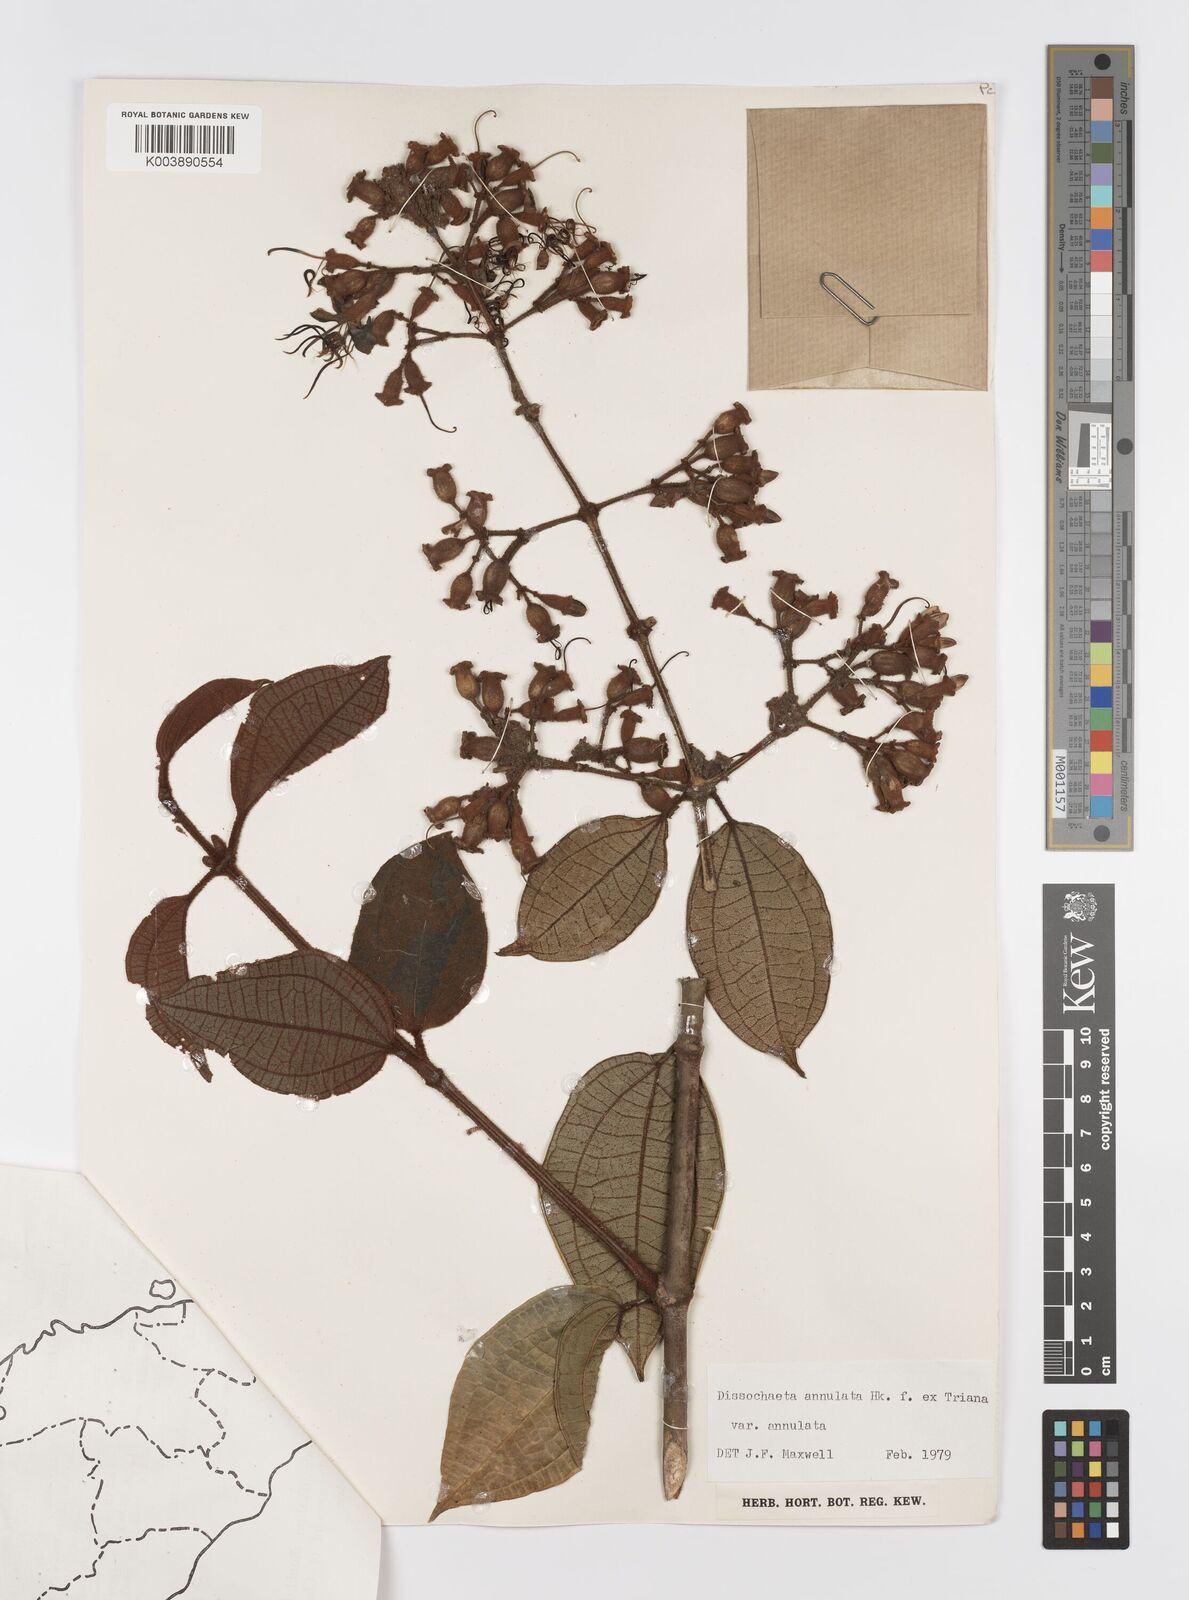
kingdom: Plantae
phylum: Tracheophyta
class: Magnoliopsida
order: Myrtales
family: Melastomataceae
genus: Dissochaeta
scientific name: Dissochaeta annulata
